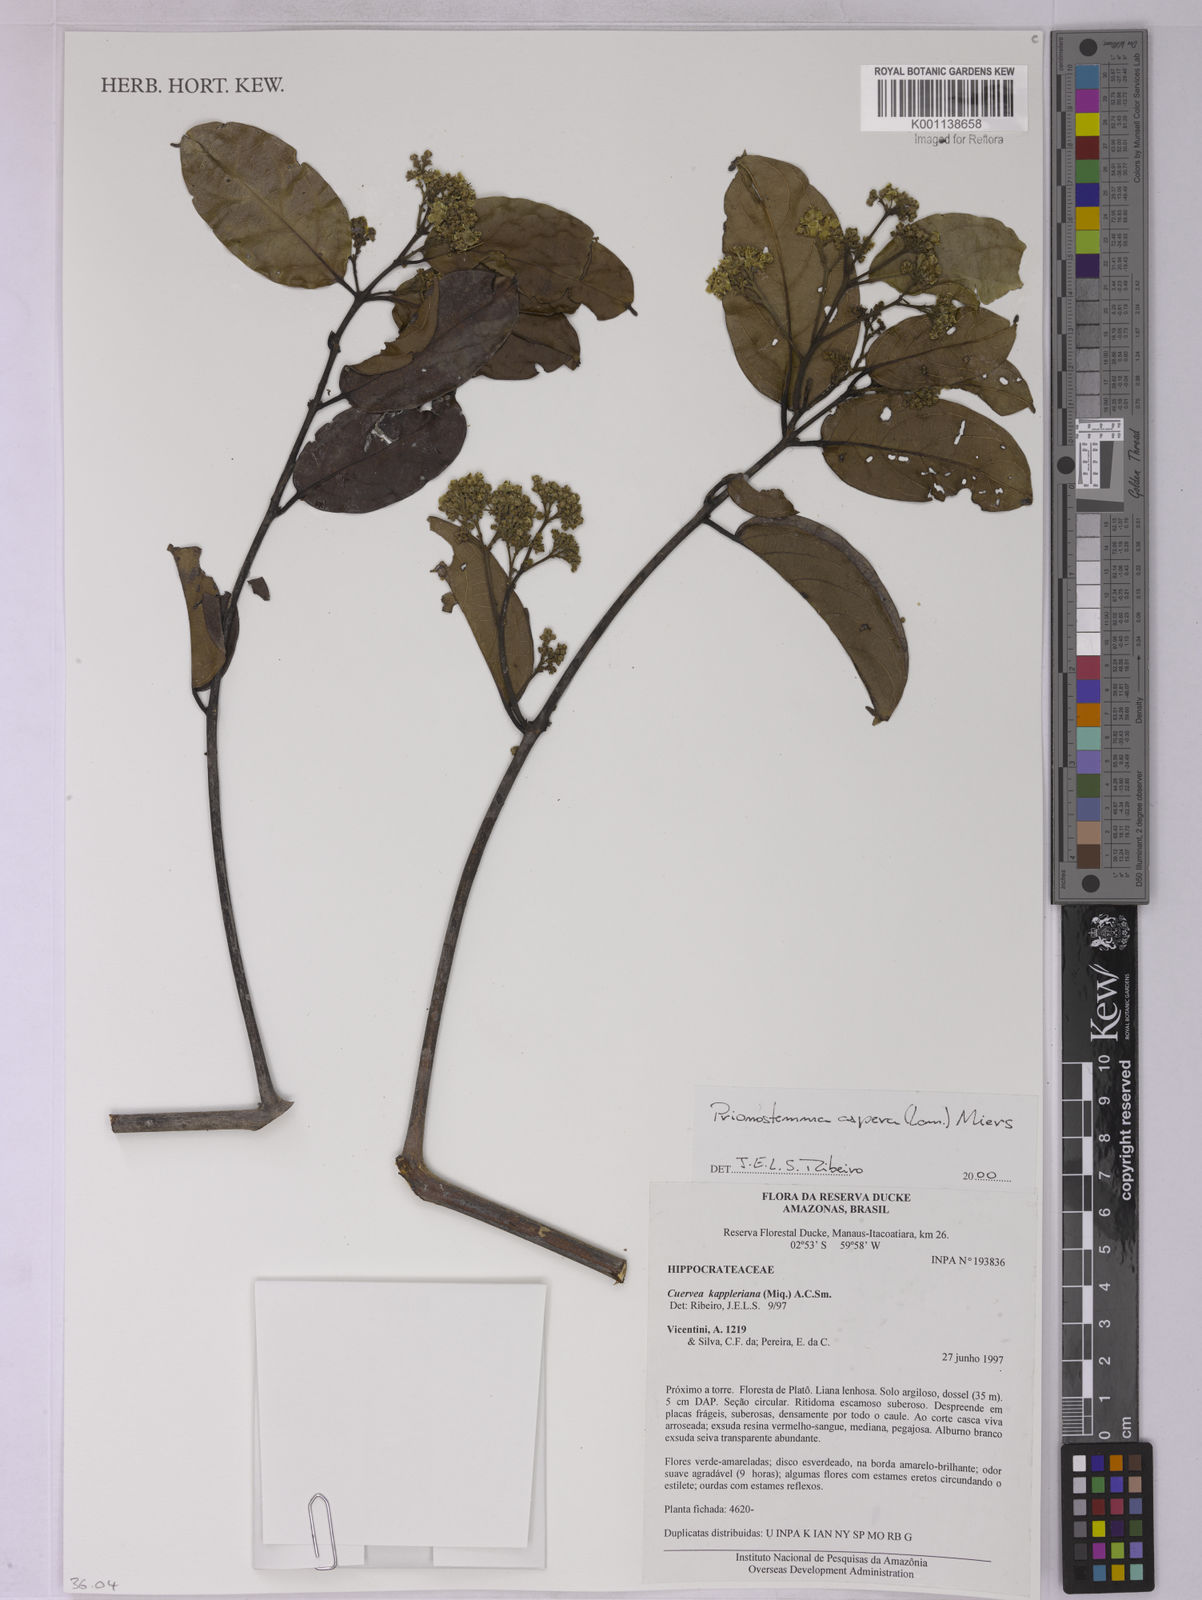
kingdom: Plantae
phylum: Tracheophyta
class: Magnoliopsida
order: Celastrales
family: Celastraceae
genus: Prionostemma
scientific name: Prionostemma aspera
